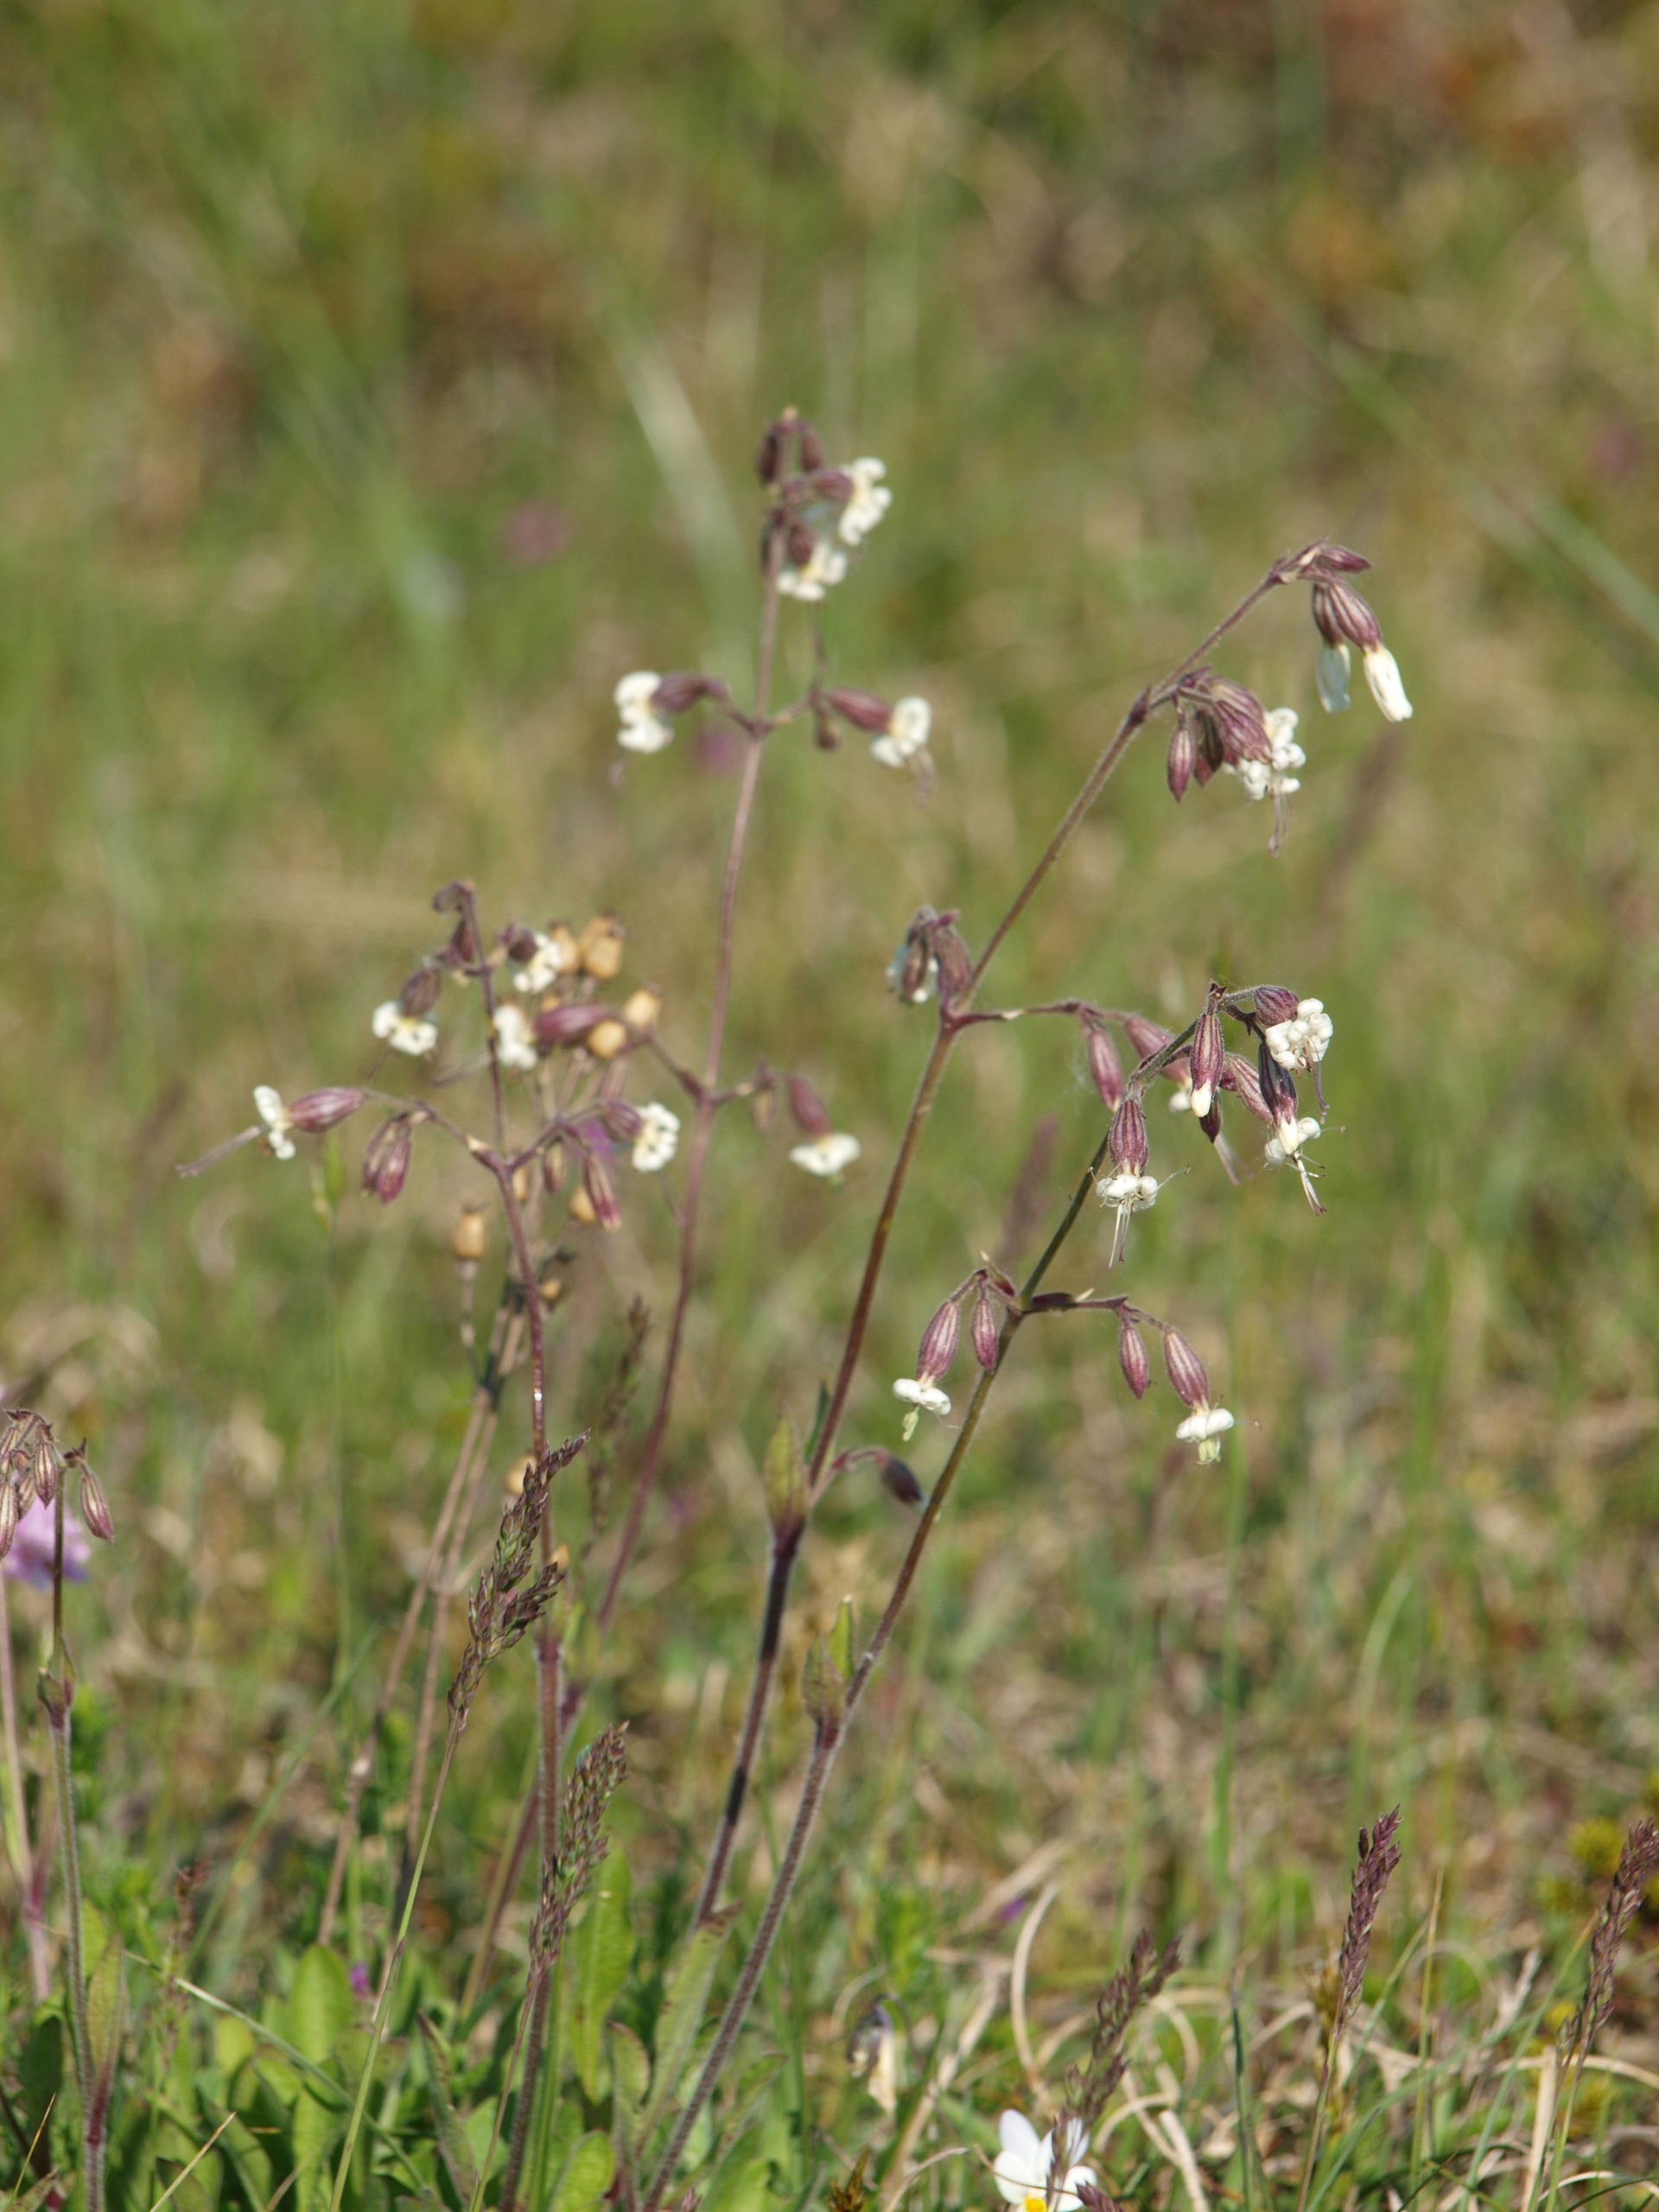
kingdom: Plantae
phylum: Tracheophyta
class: Magnoliopsida
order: Caryophyllales
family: Caryophyllaceae
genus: Silene
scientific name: Silene nutans
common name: Nikkende limurt
